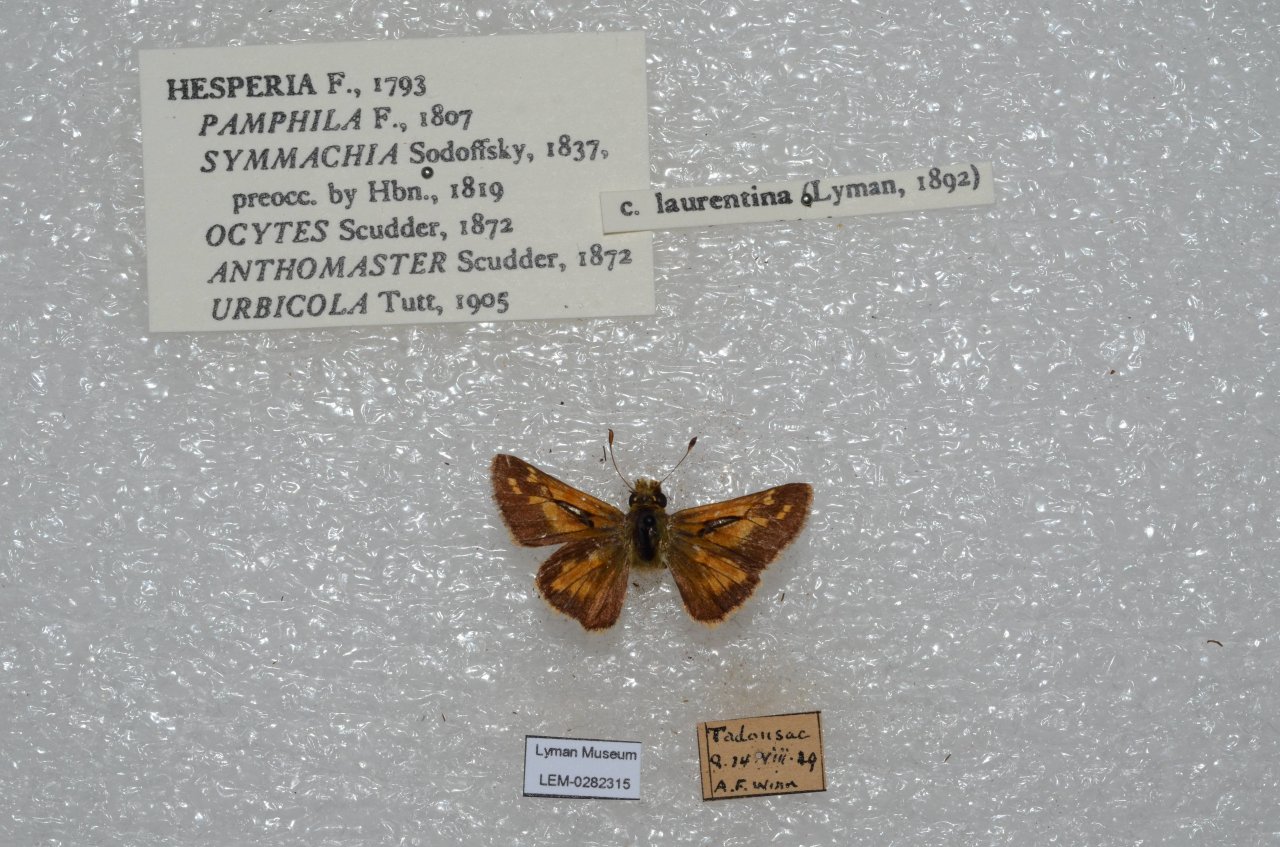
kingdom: Animalia
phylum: Arthropoda
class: Insecta
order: Lepidoptera
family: Hesperiidae
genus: Hesperia
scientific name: Hesperia comma
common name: Common Branded Skipper
